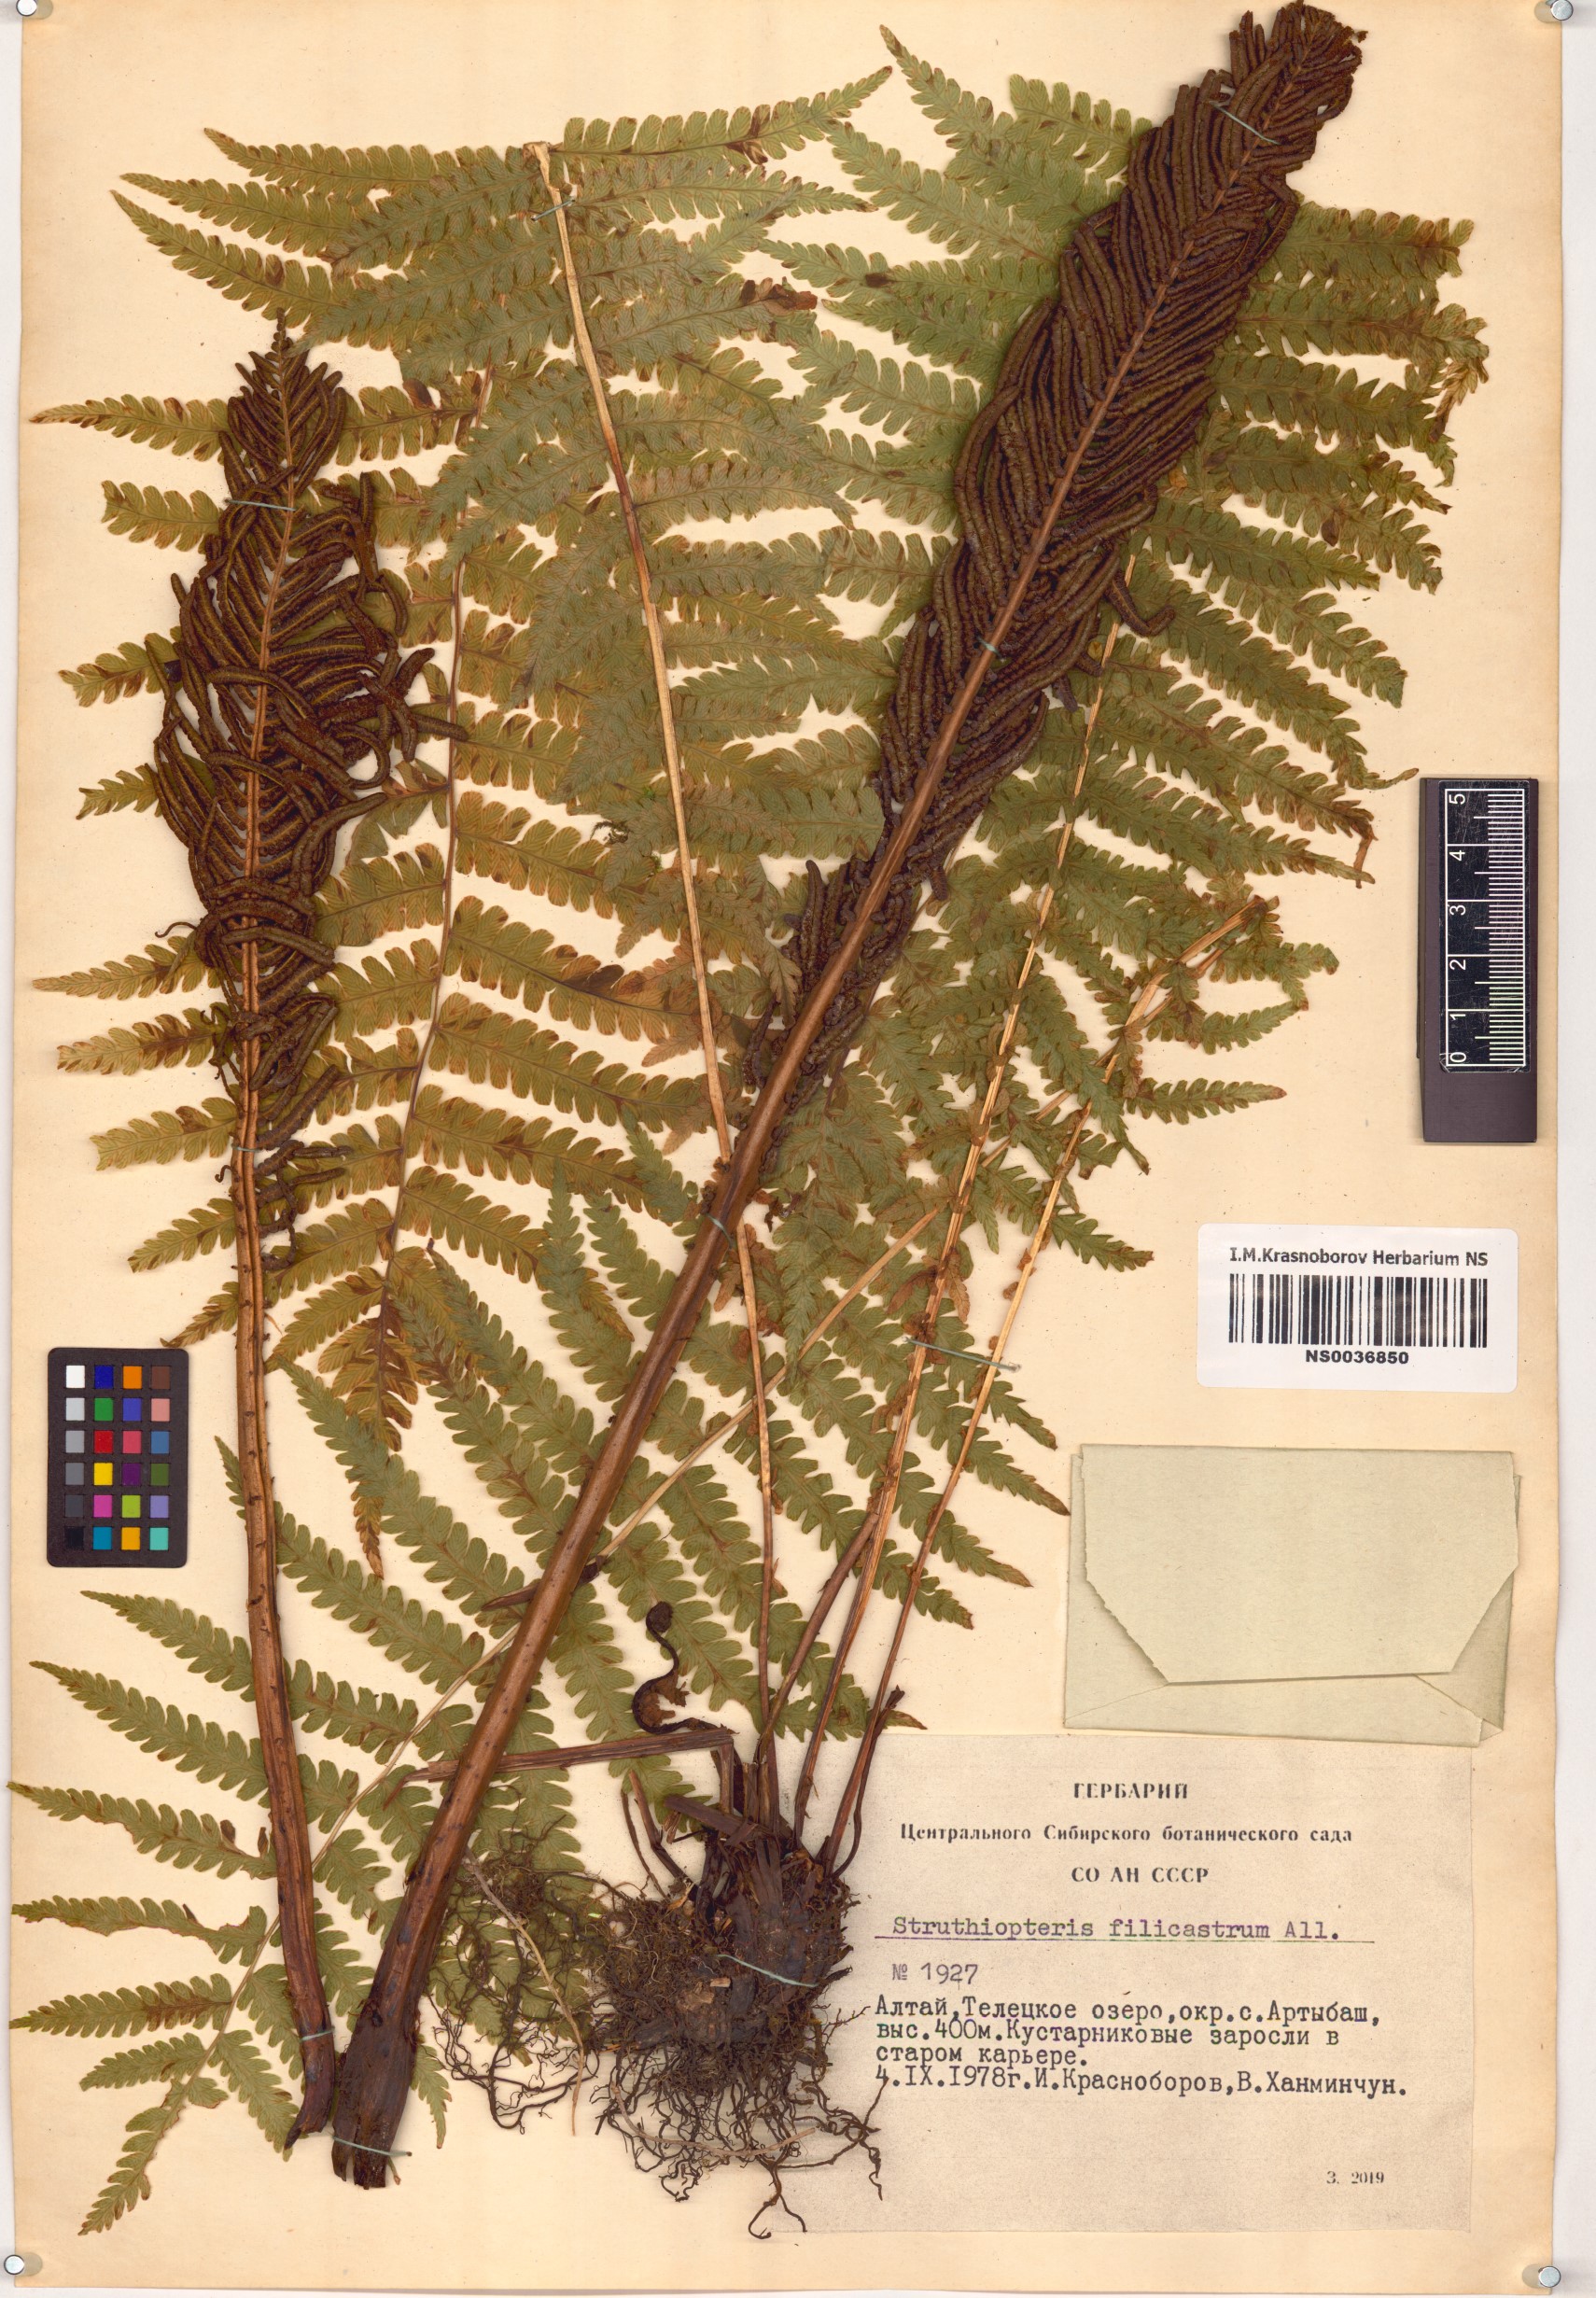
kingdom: Plantae
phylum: Tracheophyta
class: Polypodiopsida
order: Polypodiales
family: Onocleaceae
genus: Matteuccia
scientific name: Matteuccia struthiopteris
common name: Ostrich fern
